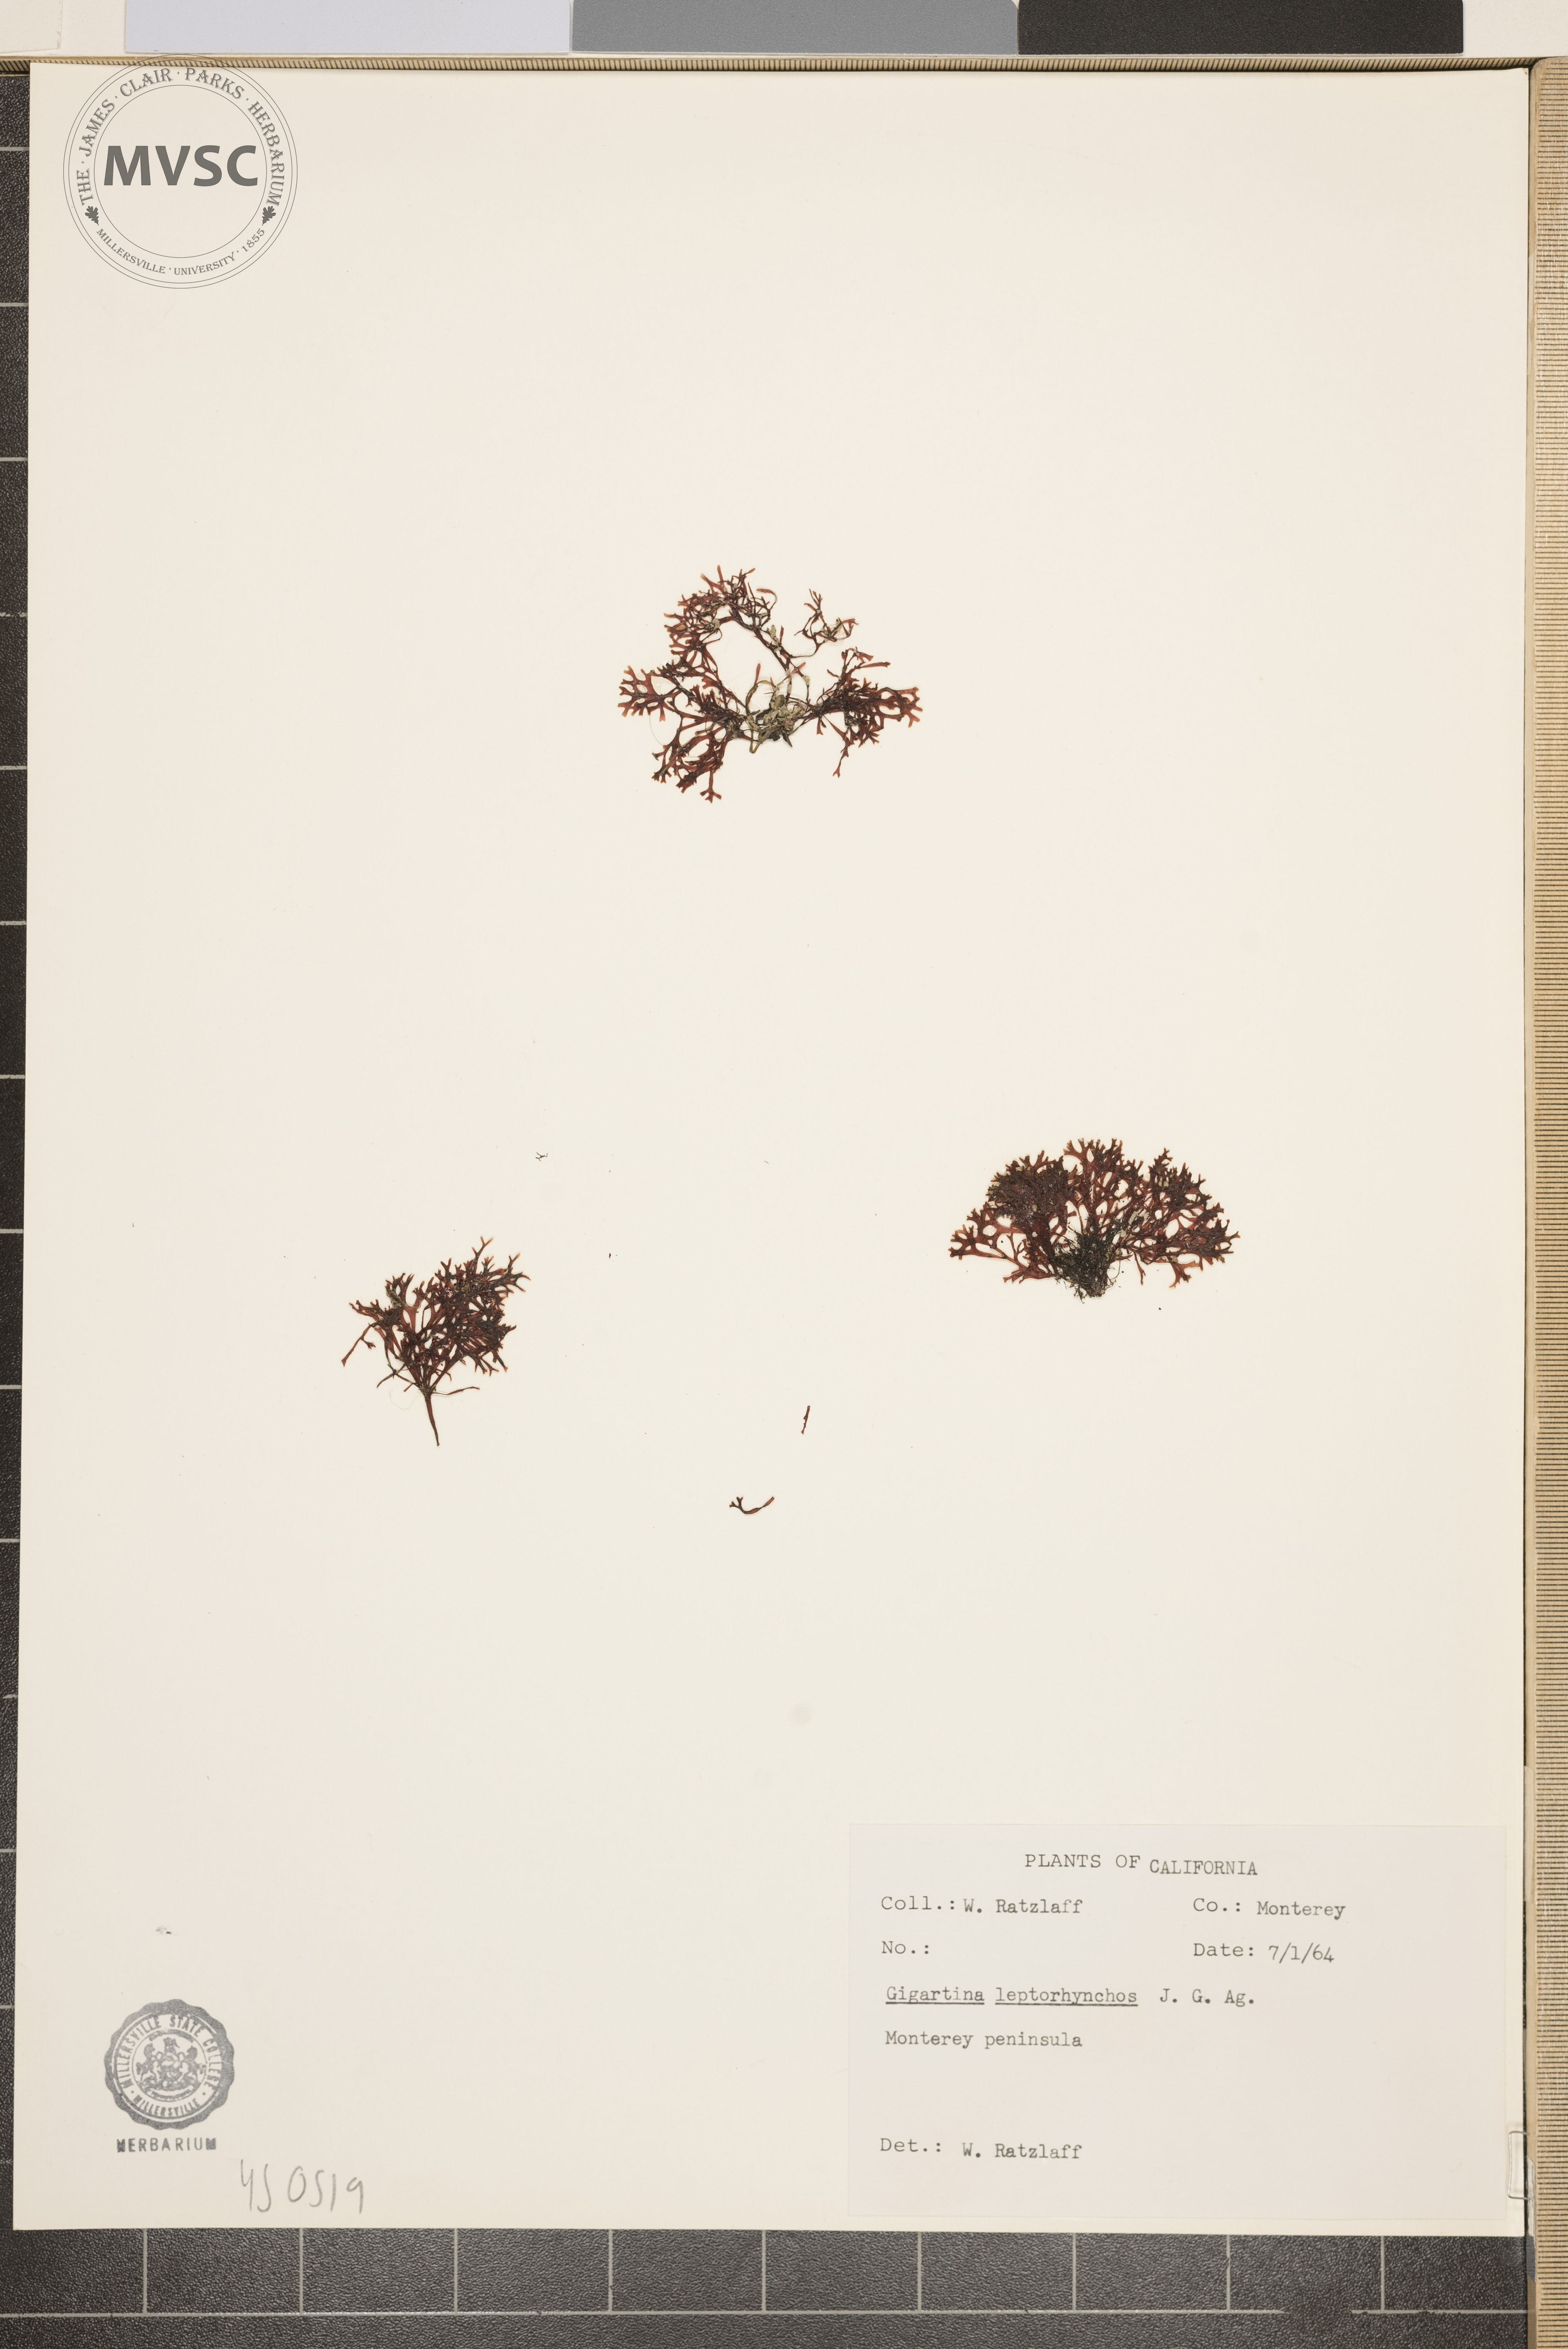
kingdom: Plantae
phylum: Rhodophyta
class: Florideophyceae
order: Gigartinales
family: Gigartinaceae
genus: Gigartina
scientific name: Gigartina leptorhynchos
